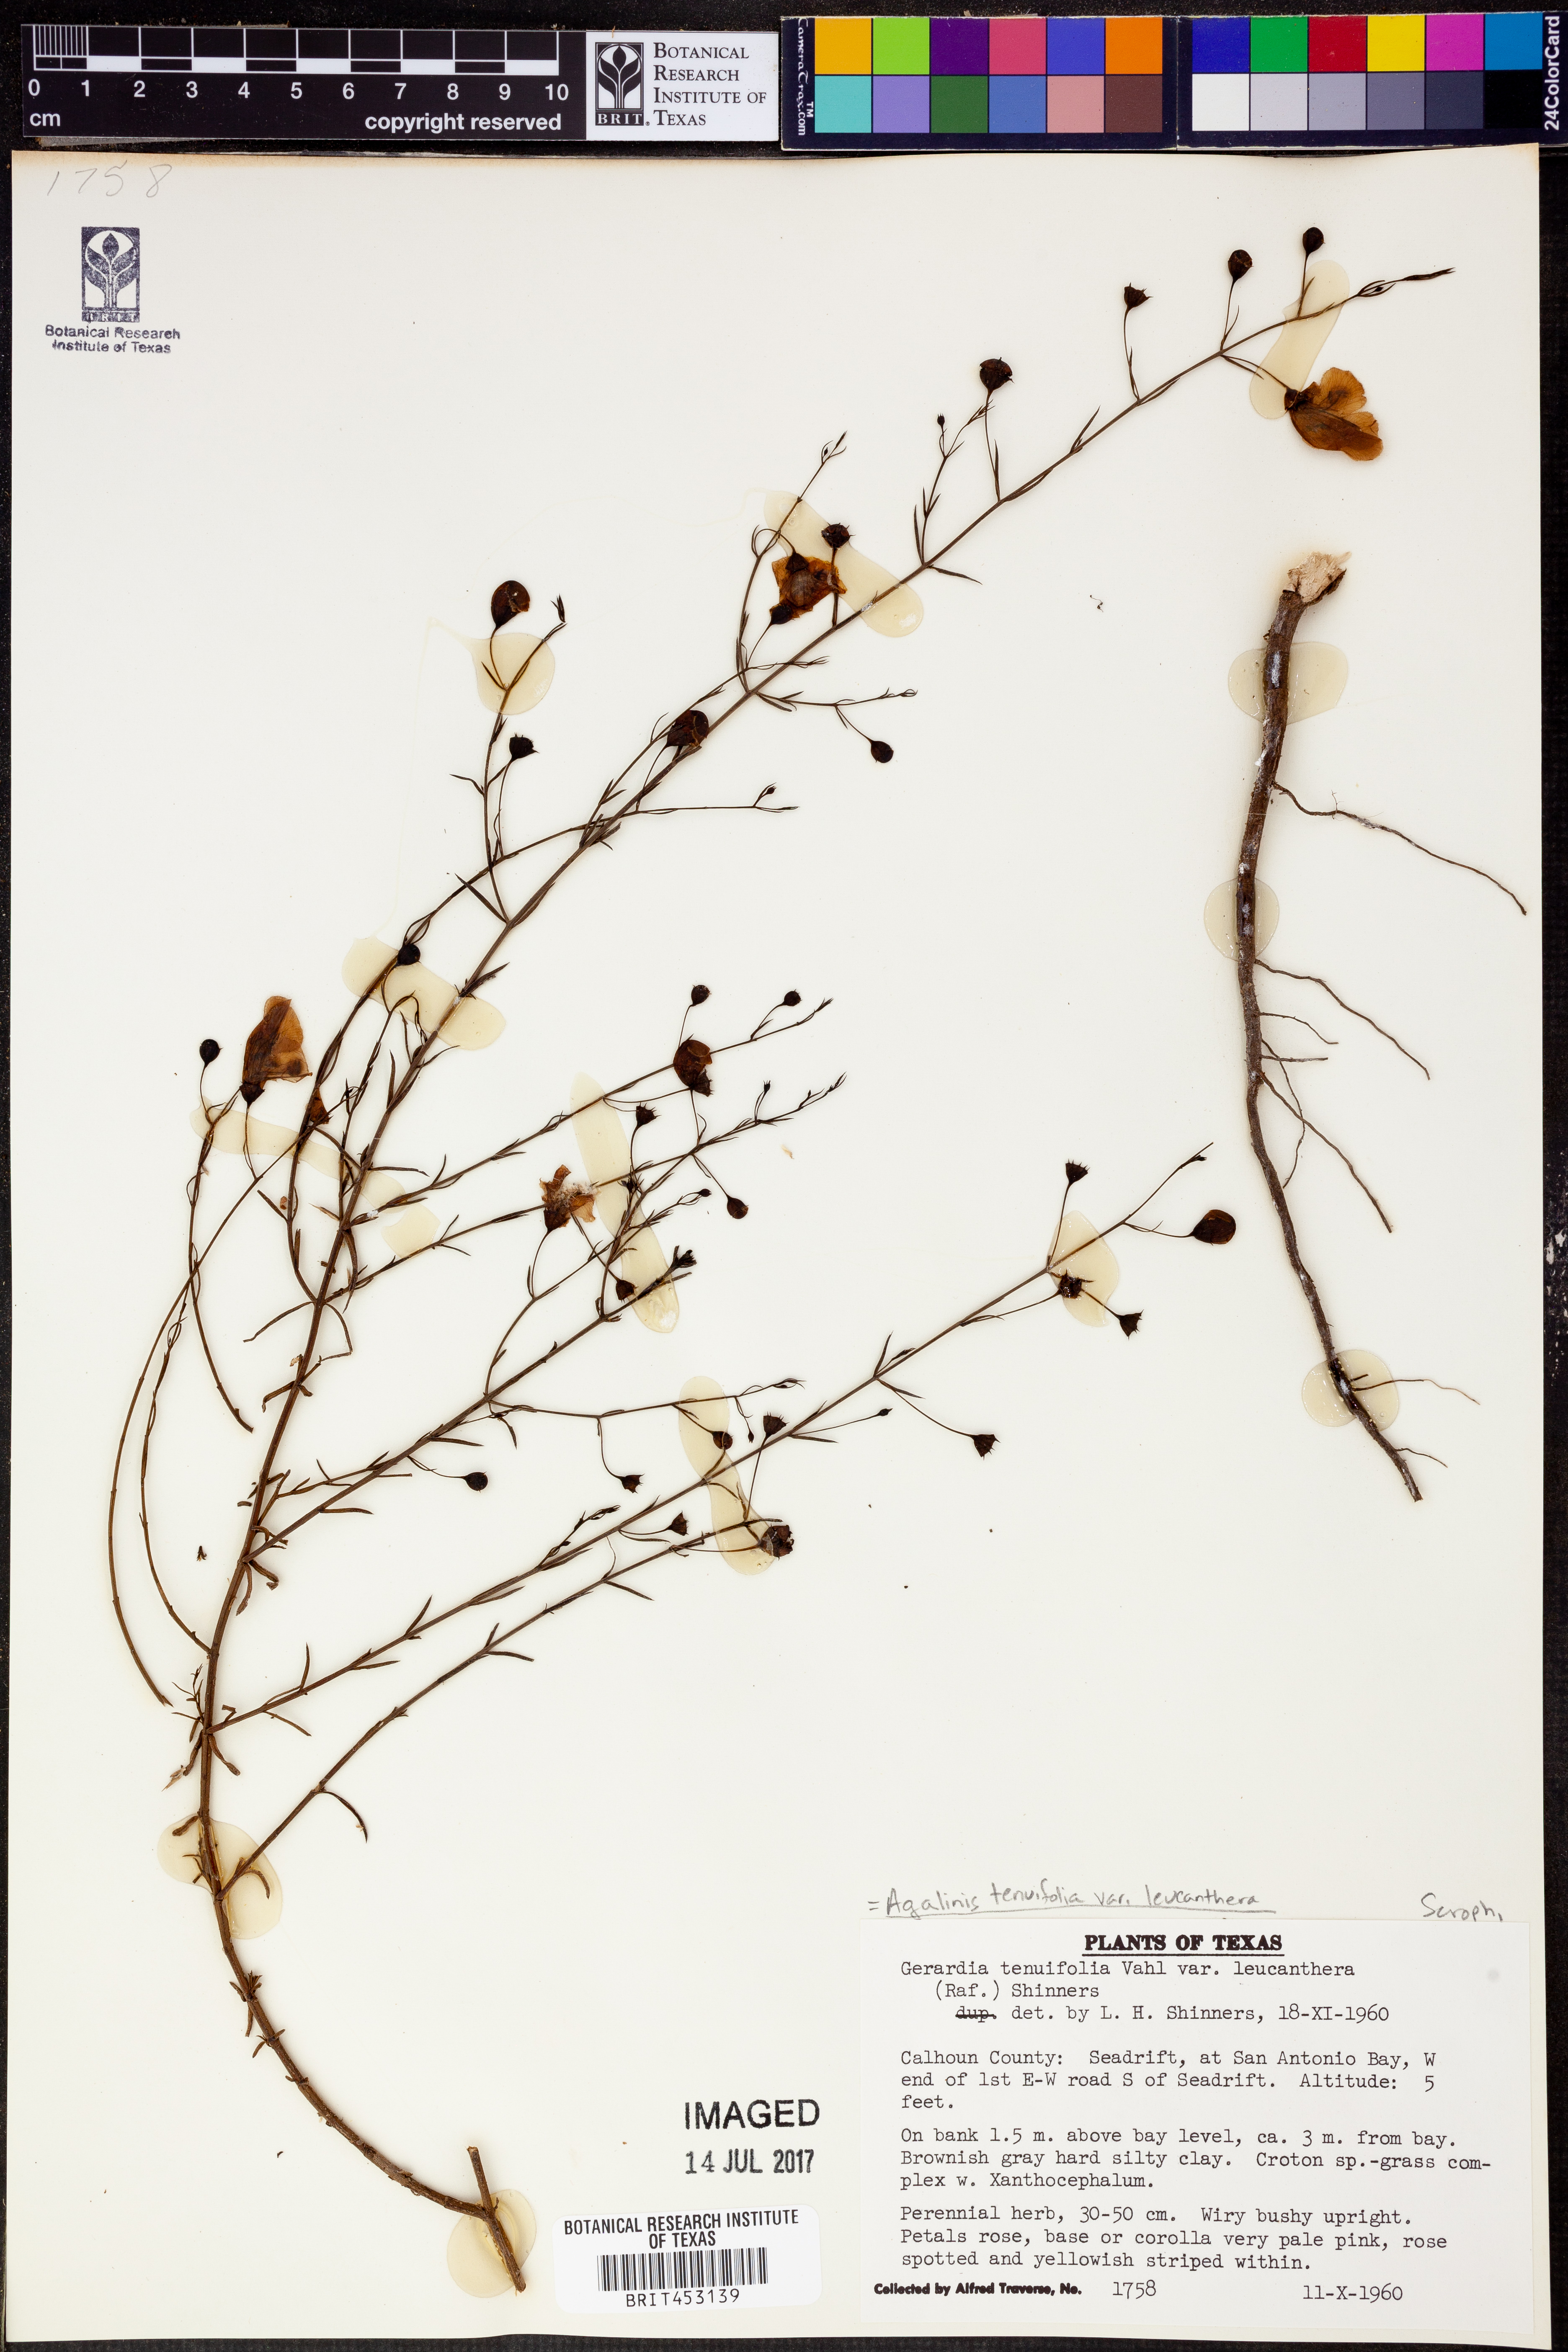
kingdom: Plantae
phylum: Tracheophyta
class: Magnoliopsida
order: Lamiales
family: Orobanchaceae
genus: Agalinis
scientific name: Agalinis tenuifolia
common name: Slender agalinis
